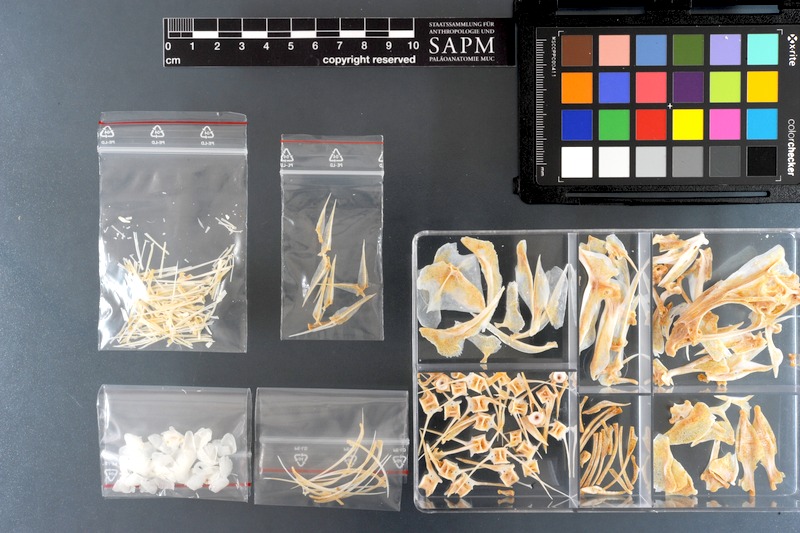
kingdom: Animalia
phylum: Chordata
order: Perciformes
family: Lutjanidae
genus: Lutjanus
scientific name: Lutjanus fulviflamma
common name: Blackspot snapper
